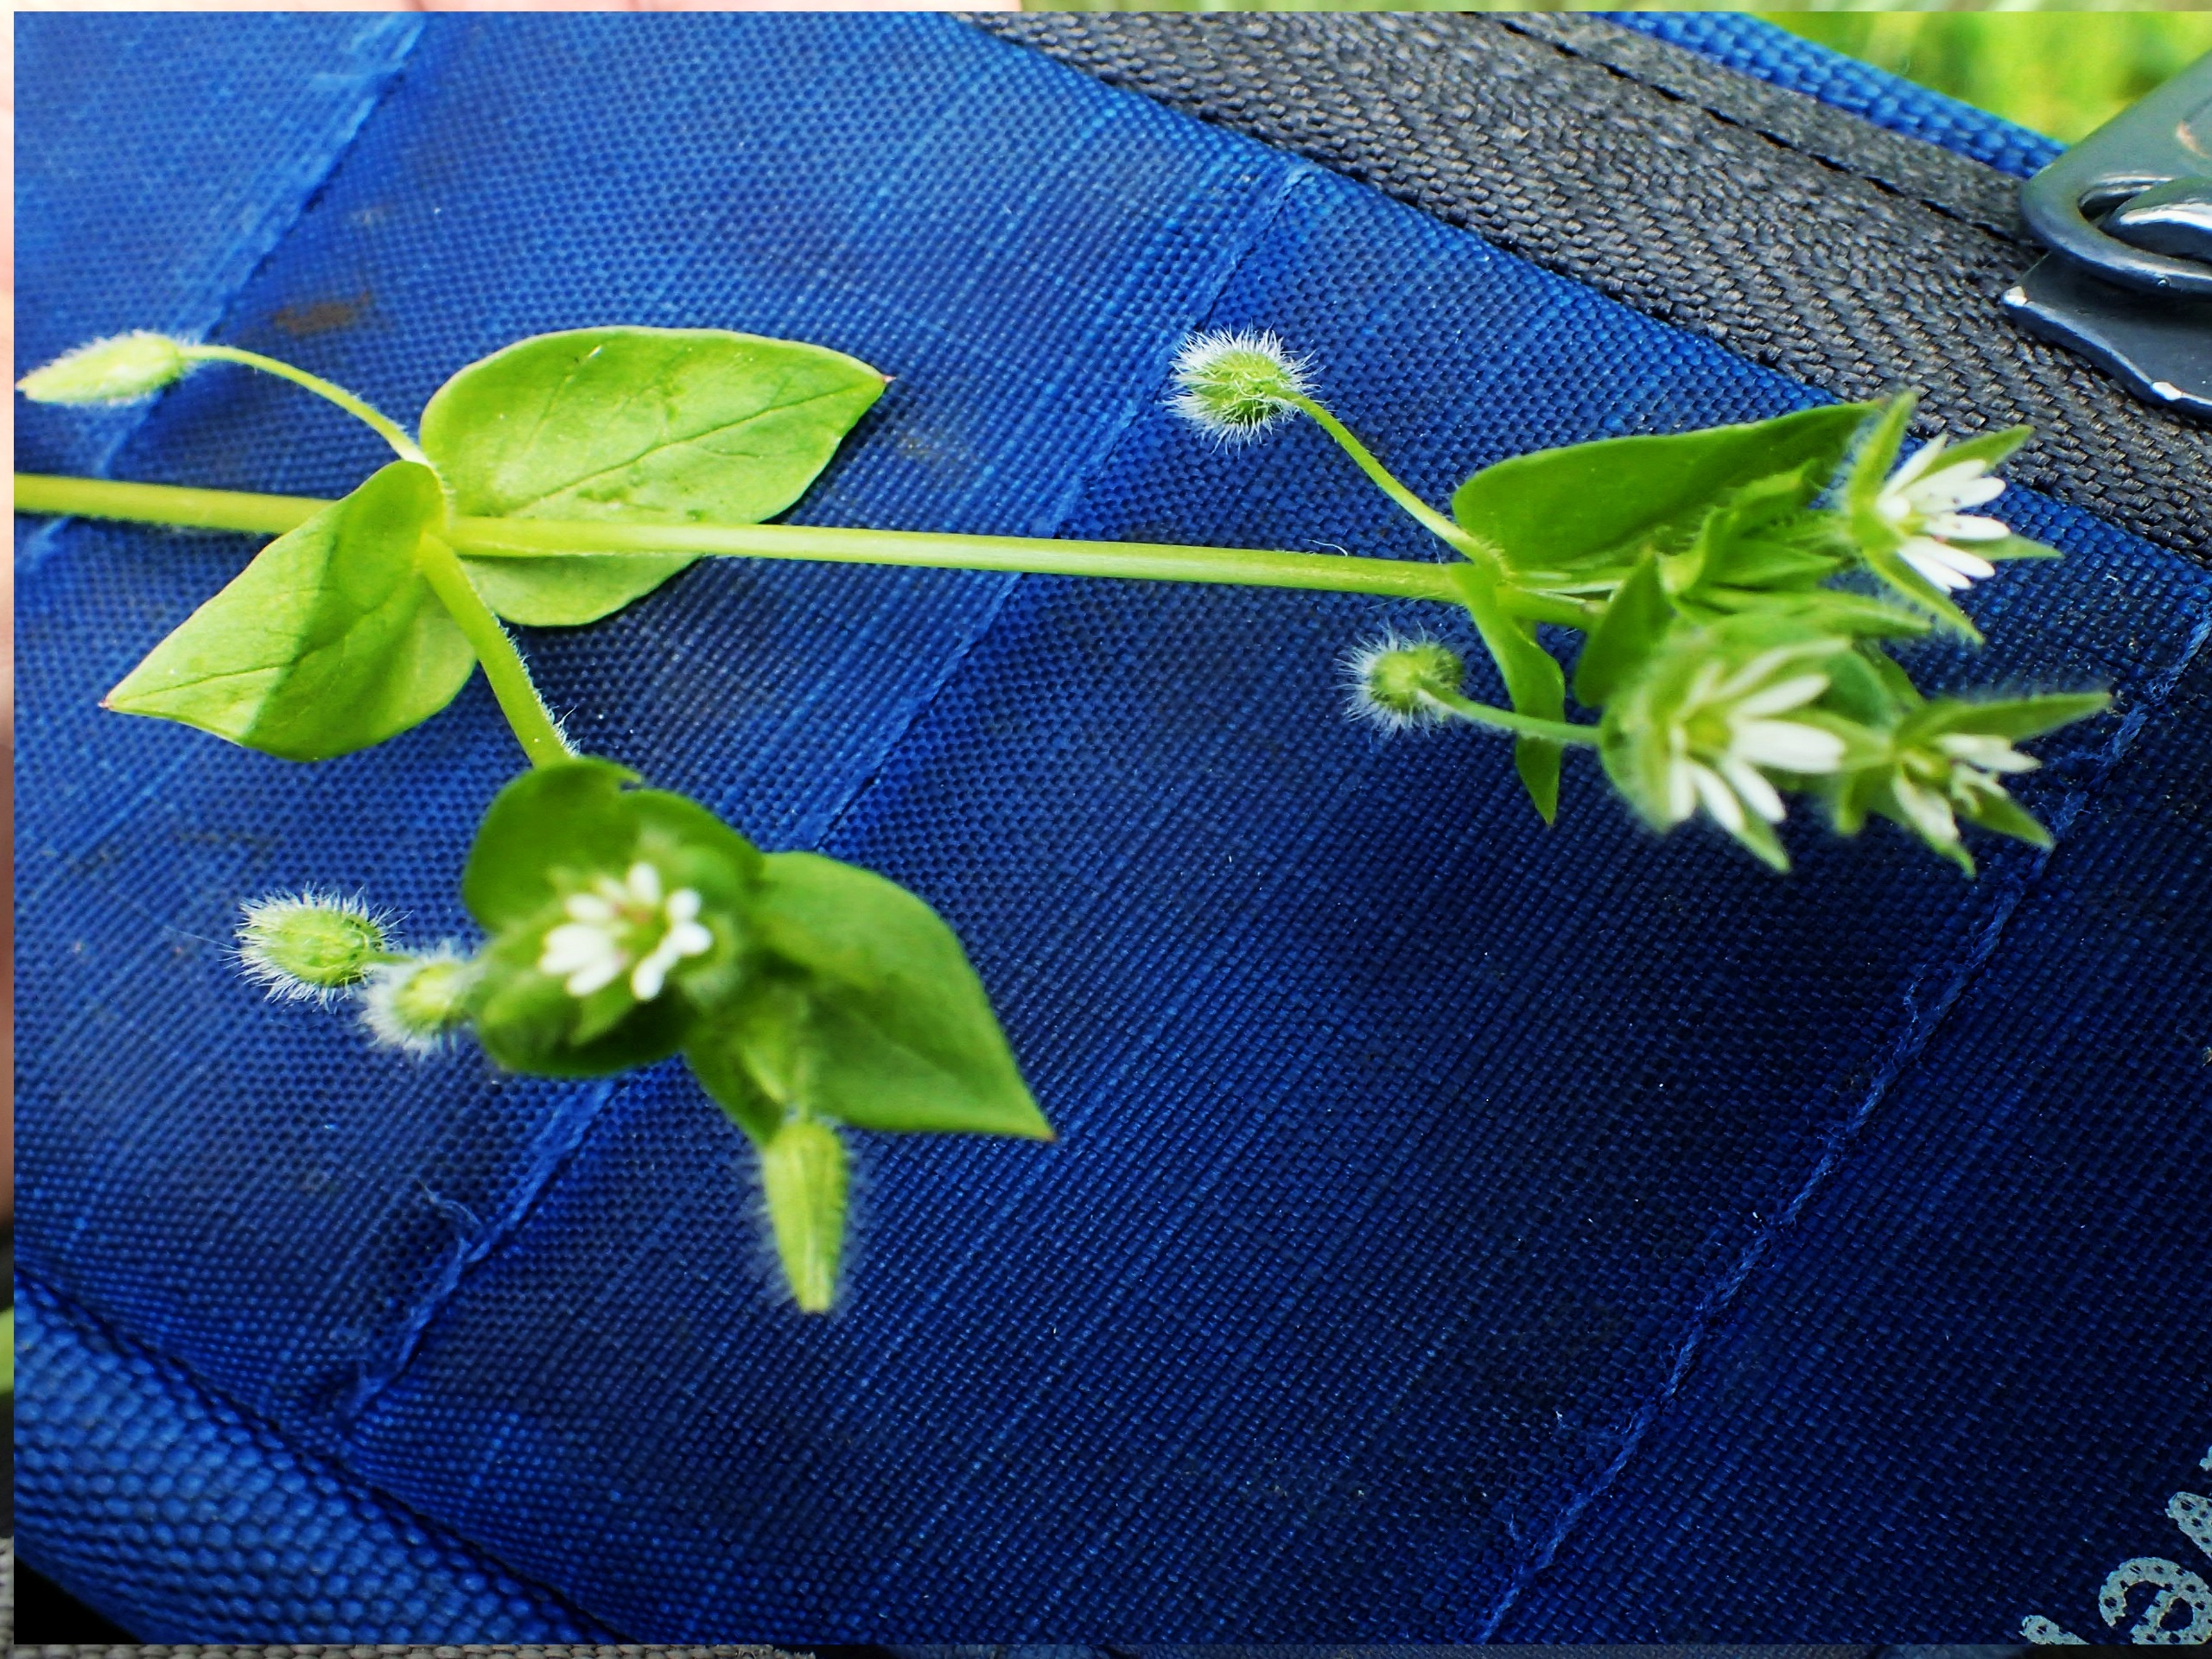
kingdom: Plantae
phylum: Tracheophyta
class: Magnoliopsida
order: Caryophyllales
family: Caryophyllaceae
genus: Stellaria
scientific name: Stellaria media
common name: Almindelig fuglegræs
